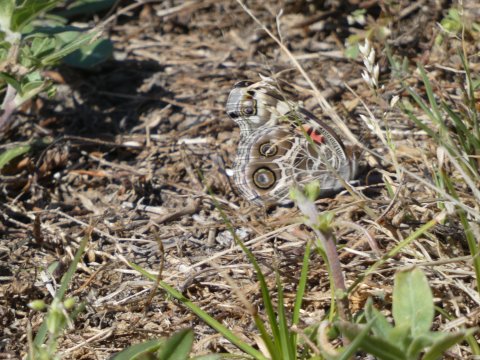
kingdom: Animalia
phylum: Arthropoda
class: Insecta
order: Lepidoptera
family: Nymphalidae
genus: Vanessa
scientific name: Vanessa virginiensis
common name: American Lady
